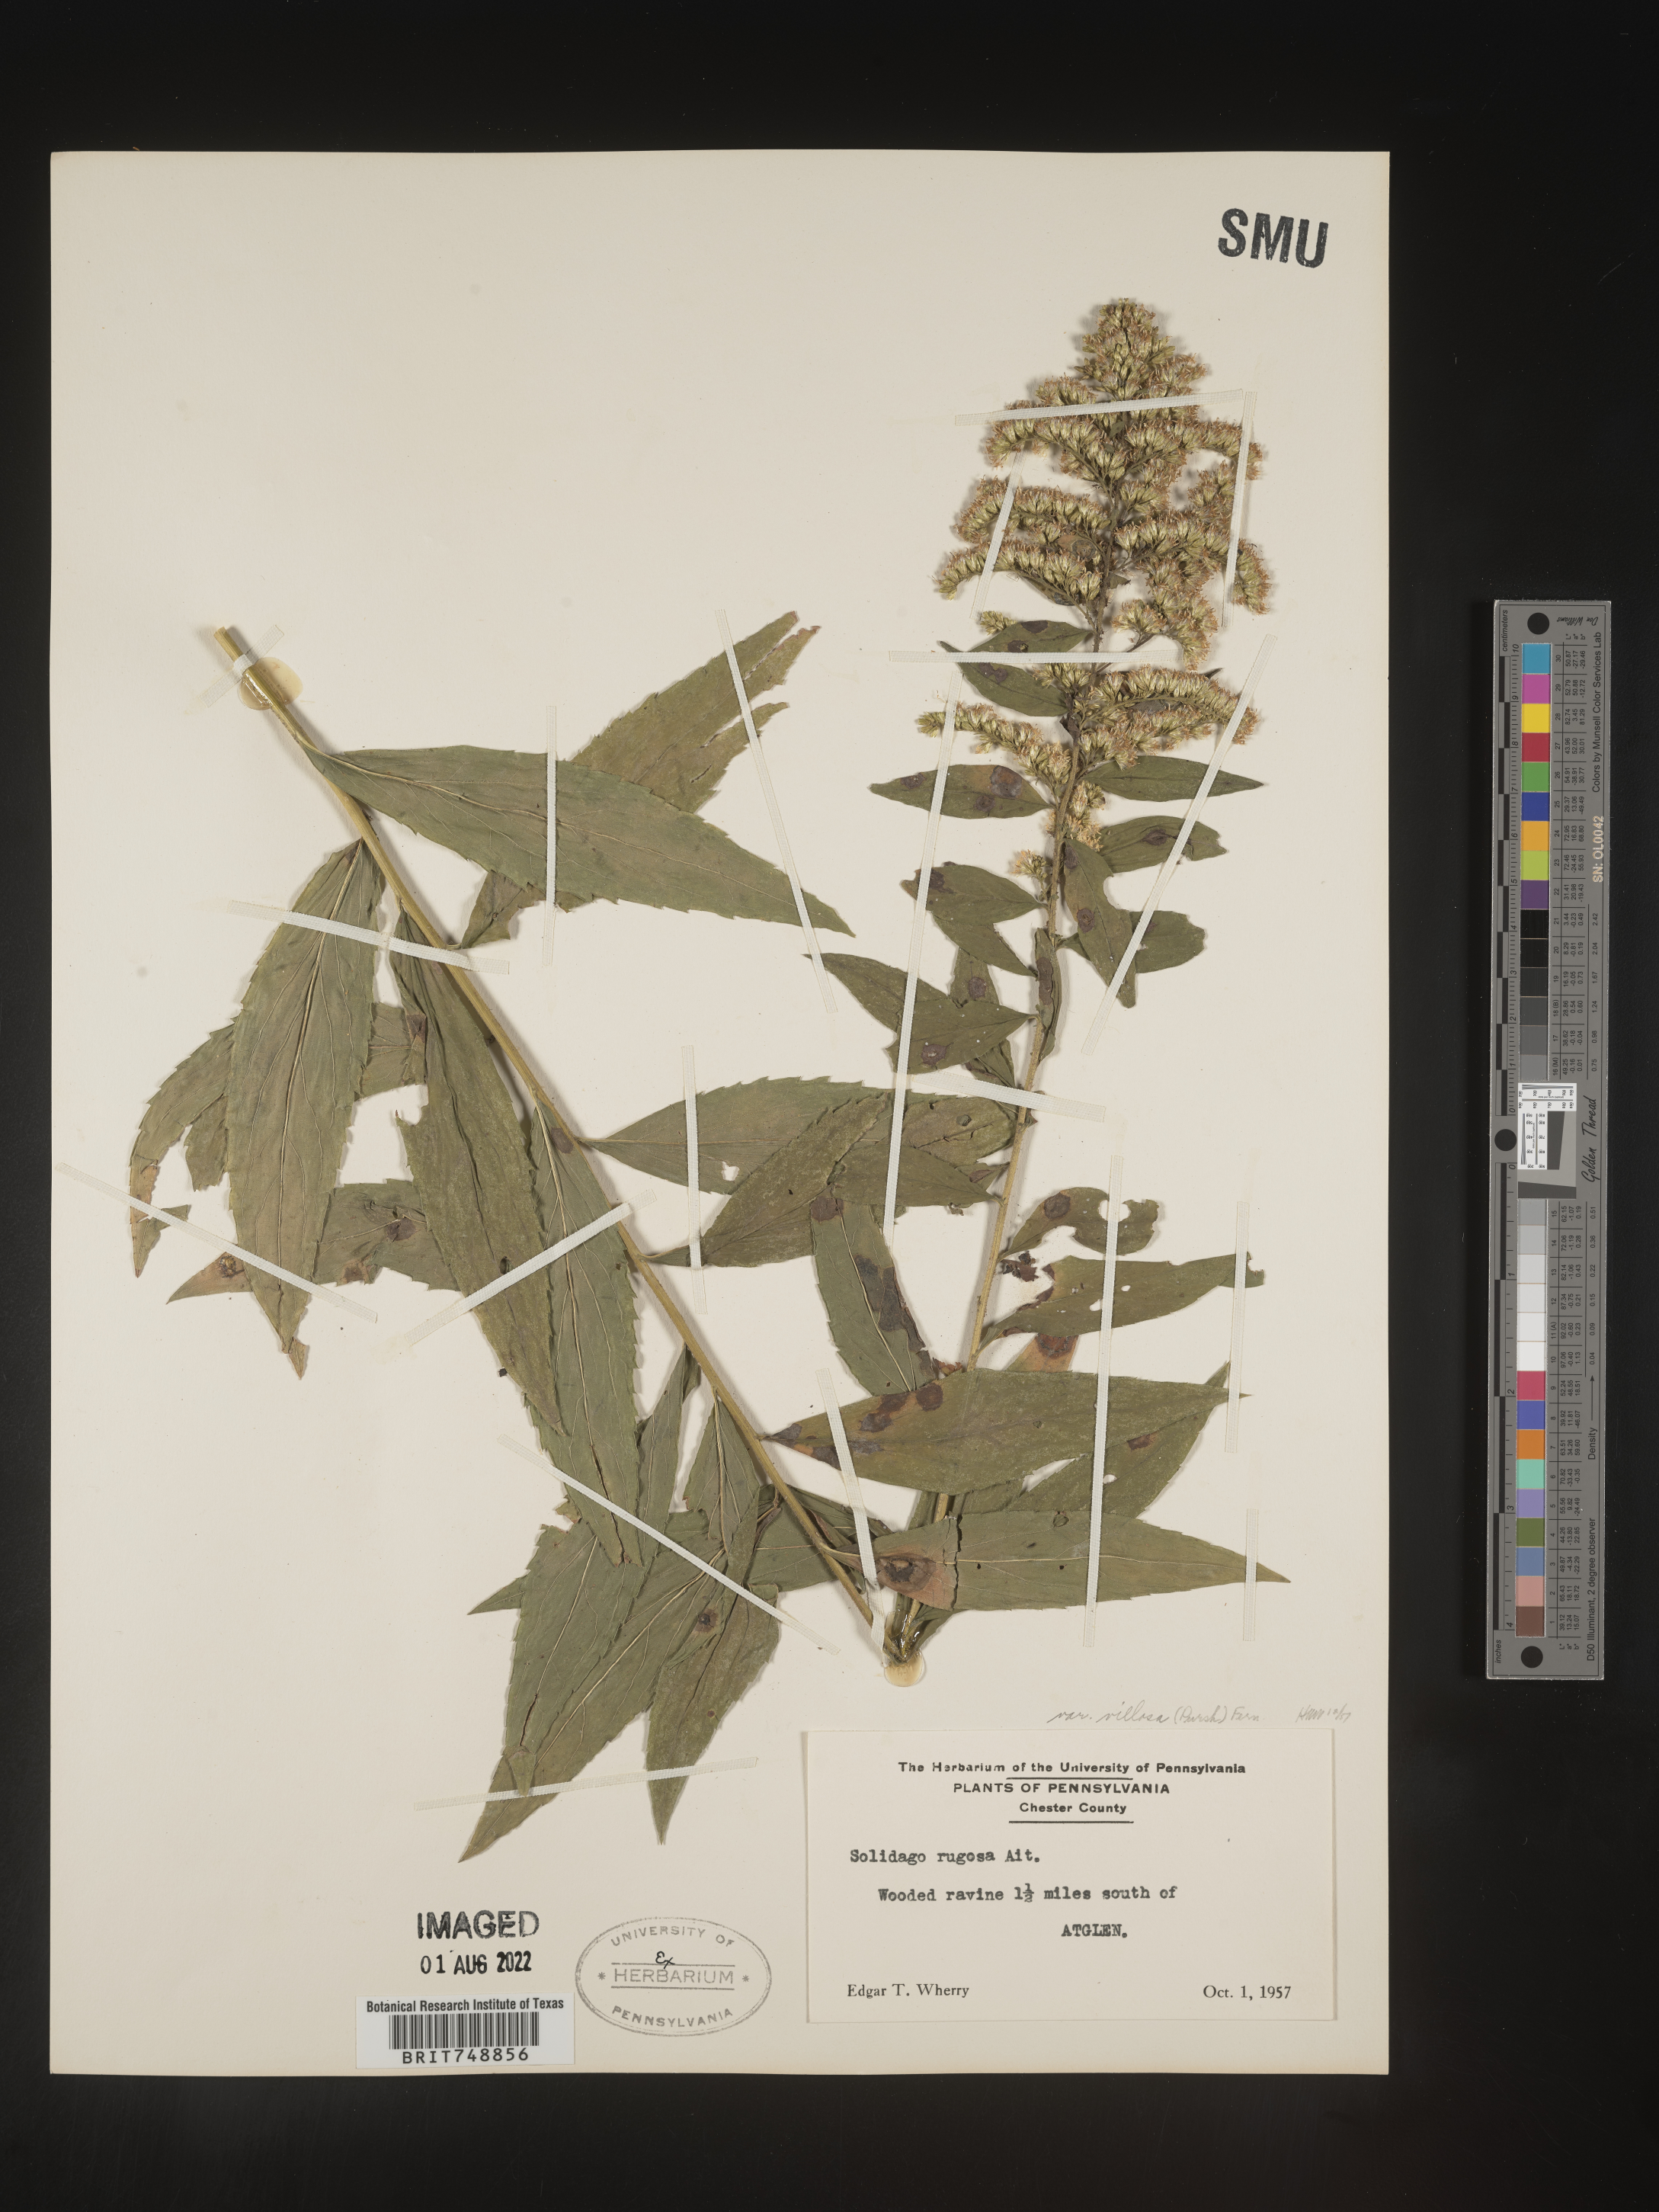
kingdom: Plantae
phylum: Tracheophyta
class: Magnoliopsida
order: Asterales
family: Asteraceae
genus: Solidago
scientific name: Solidago rugosa
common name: Rough-stemmed goldenrod
